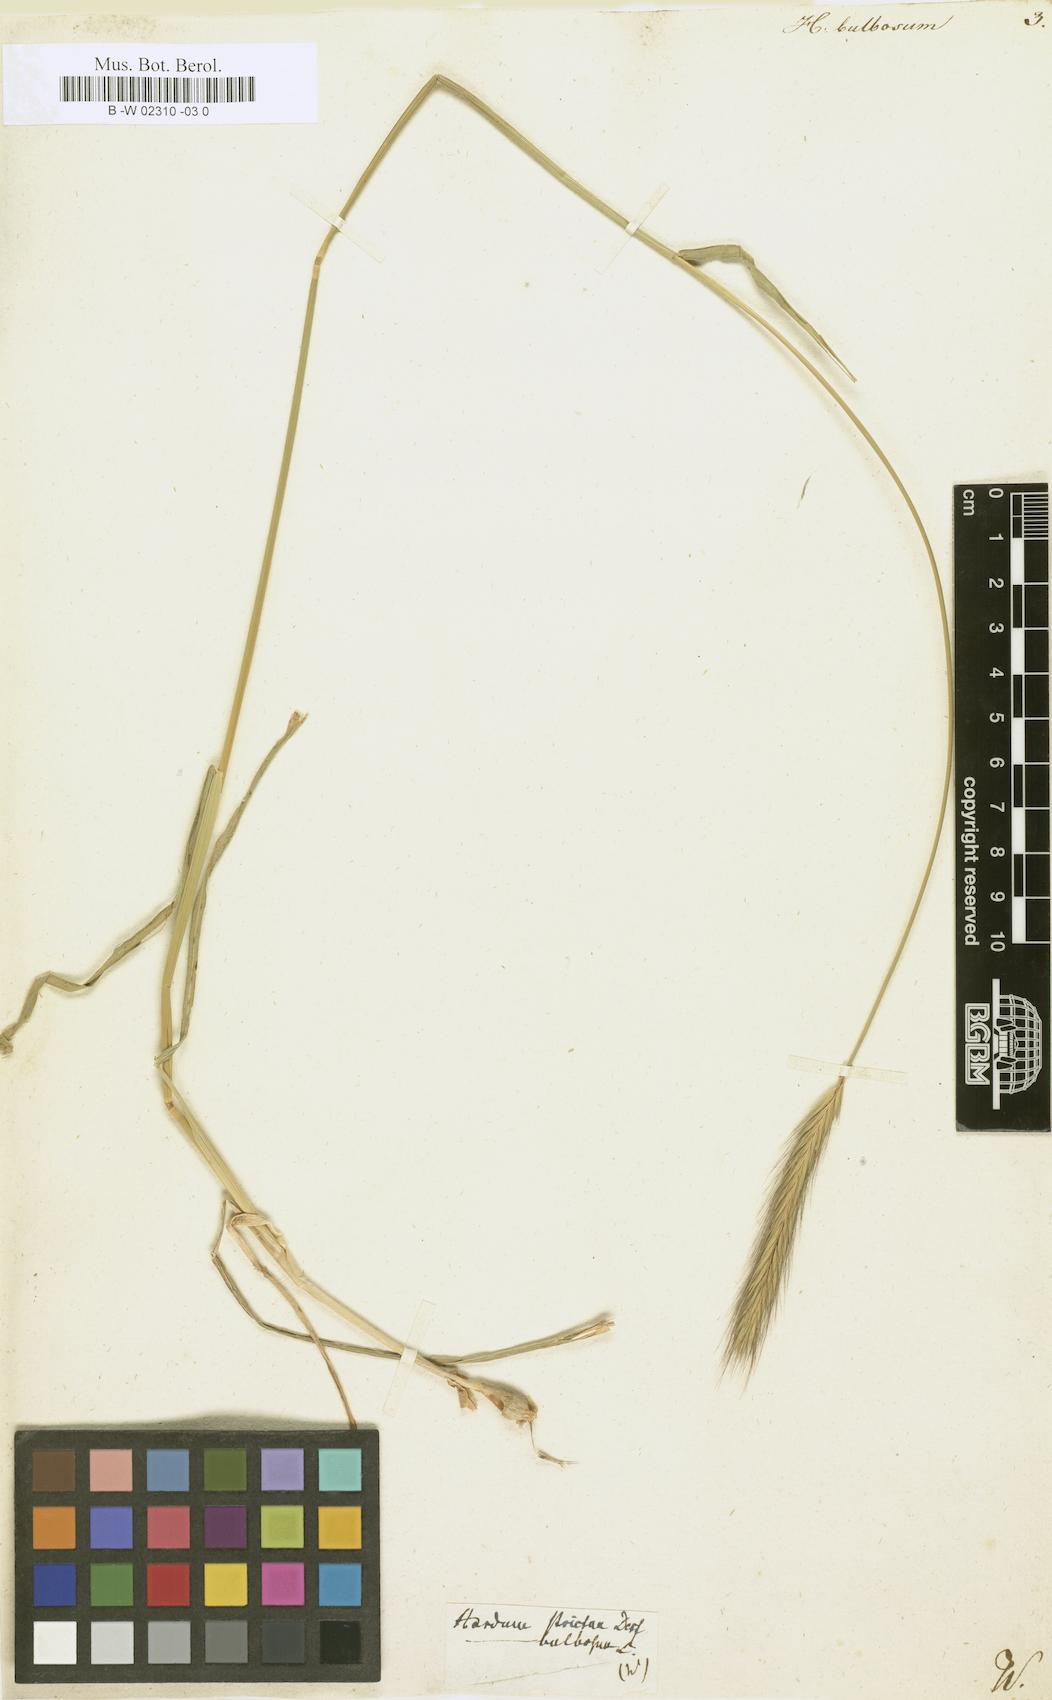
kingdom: Plantae
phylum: Tracheophyta
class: Liliopsida
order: Poales
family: Poaceae
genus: Hordeum
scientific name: Hordeum bulbosum
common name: Bulbous barley
